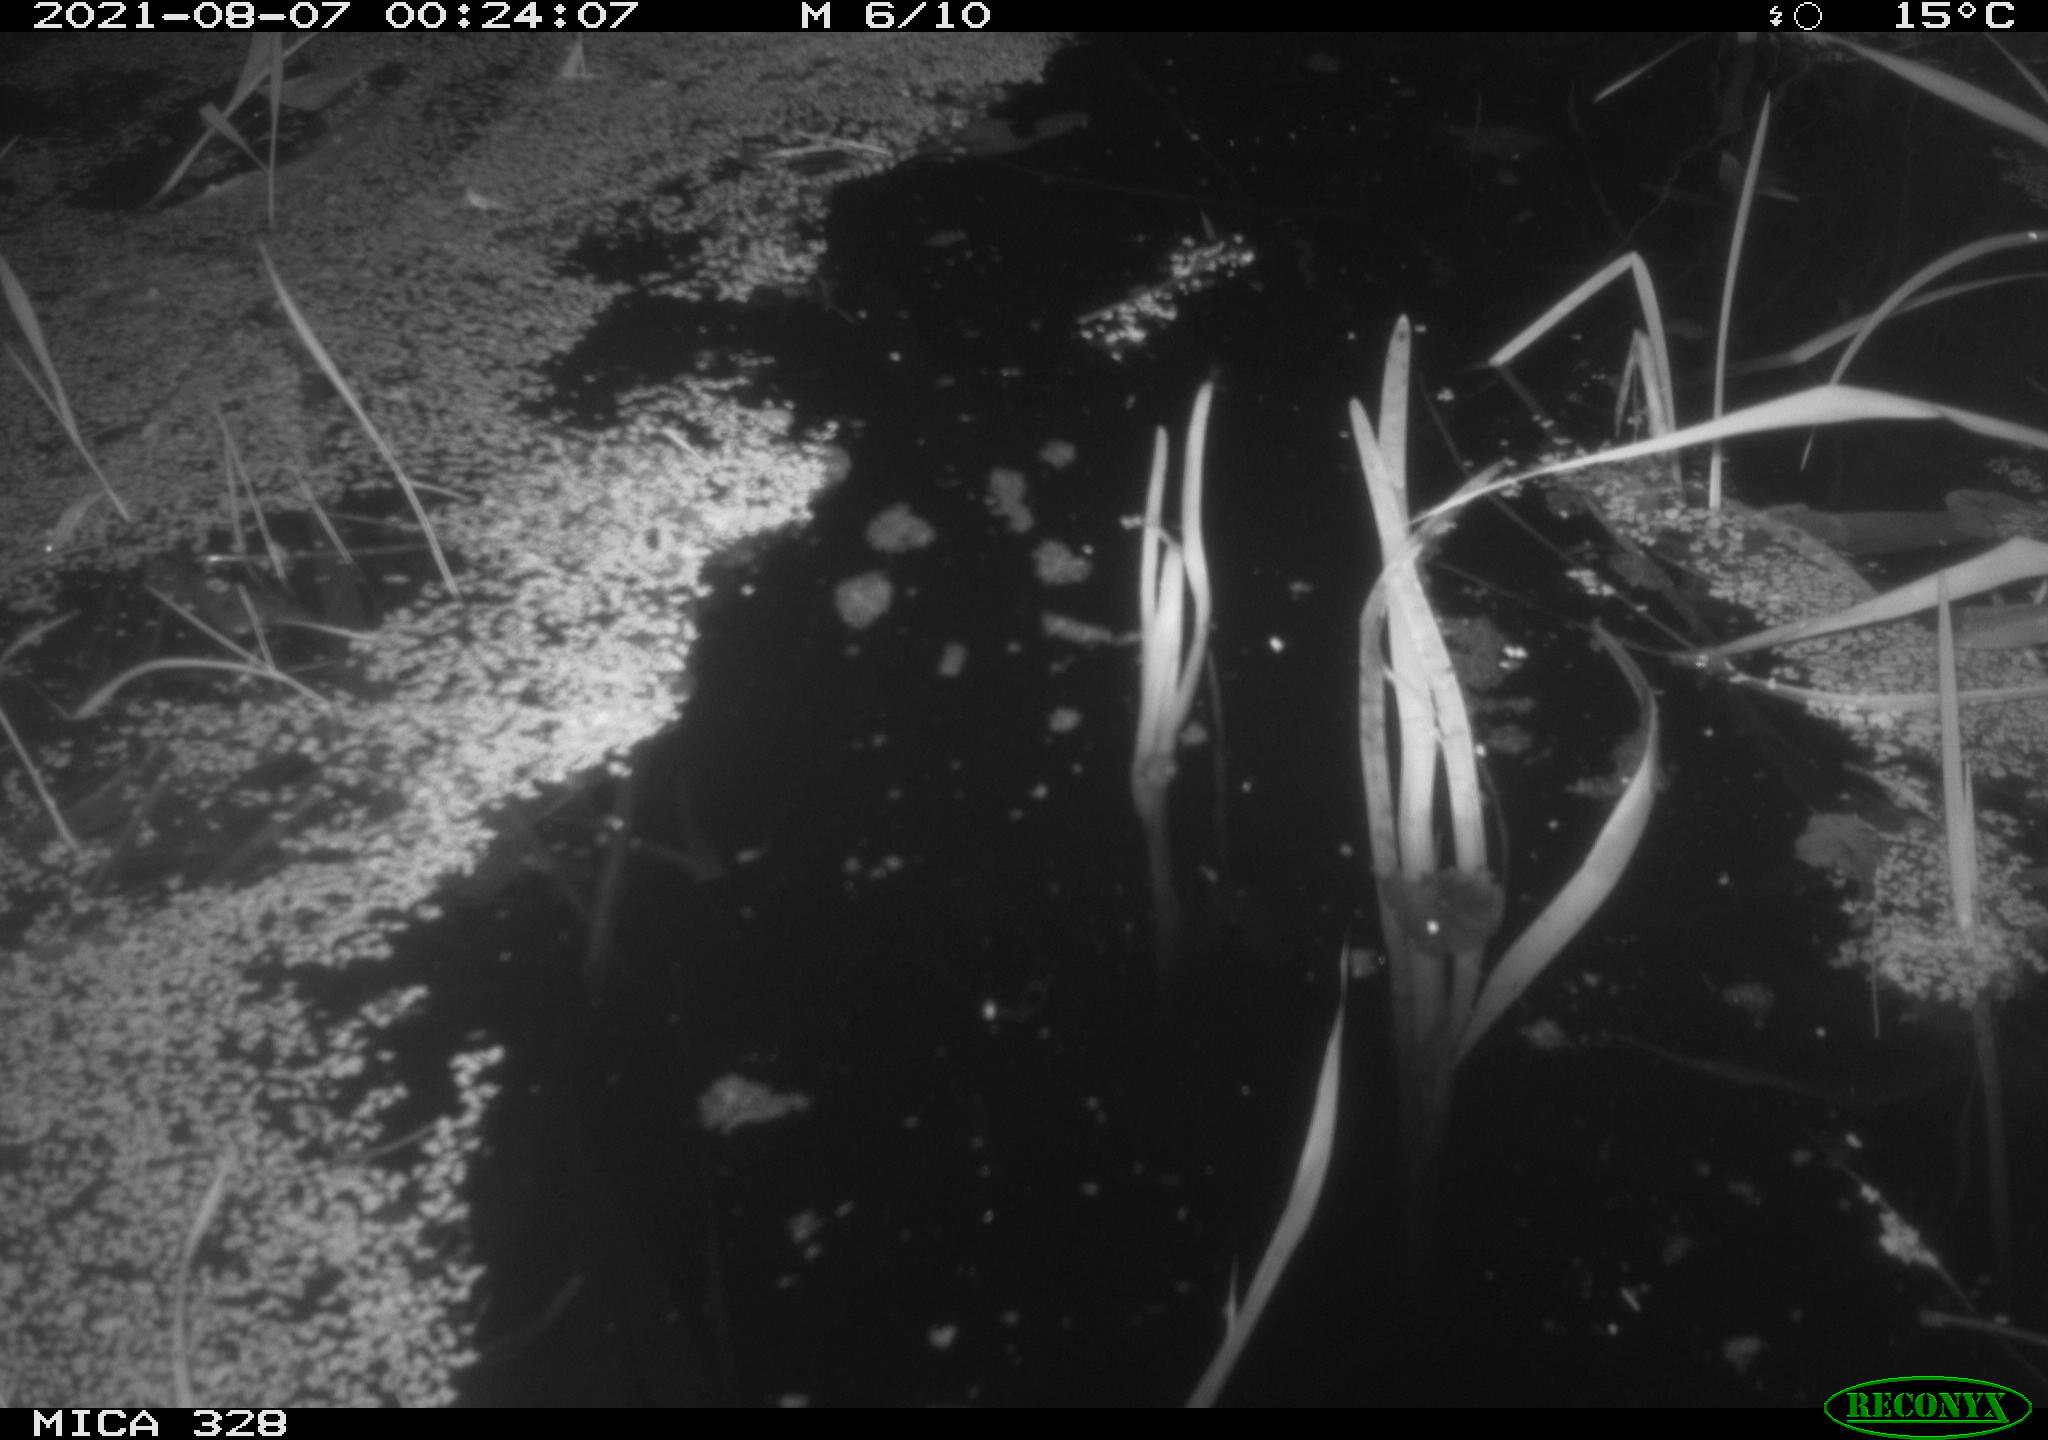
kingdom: Animalia
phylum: Chordata
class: Mammalia
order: Rodentia
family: Cricetidae
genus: Ondatra
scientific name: Ondatra zibethicus
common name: Muskrat
